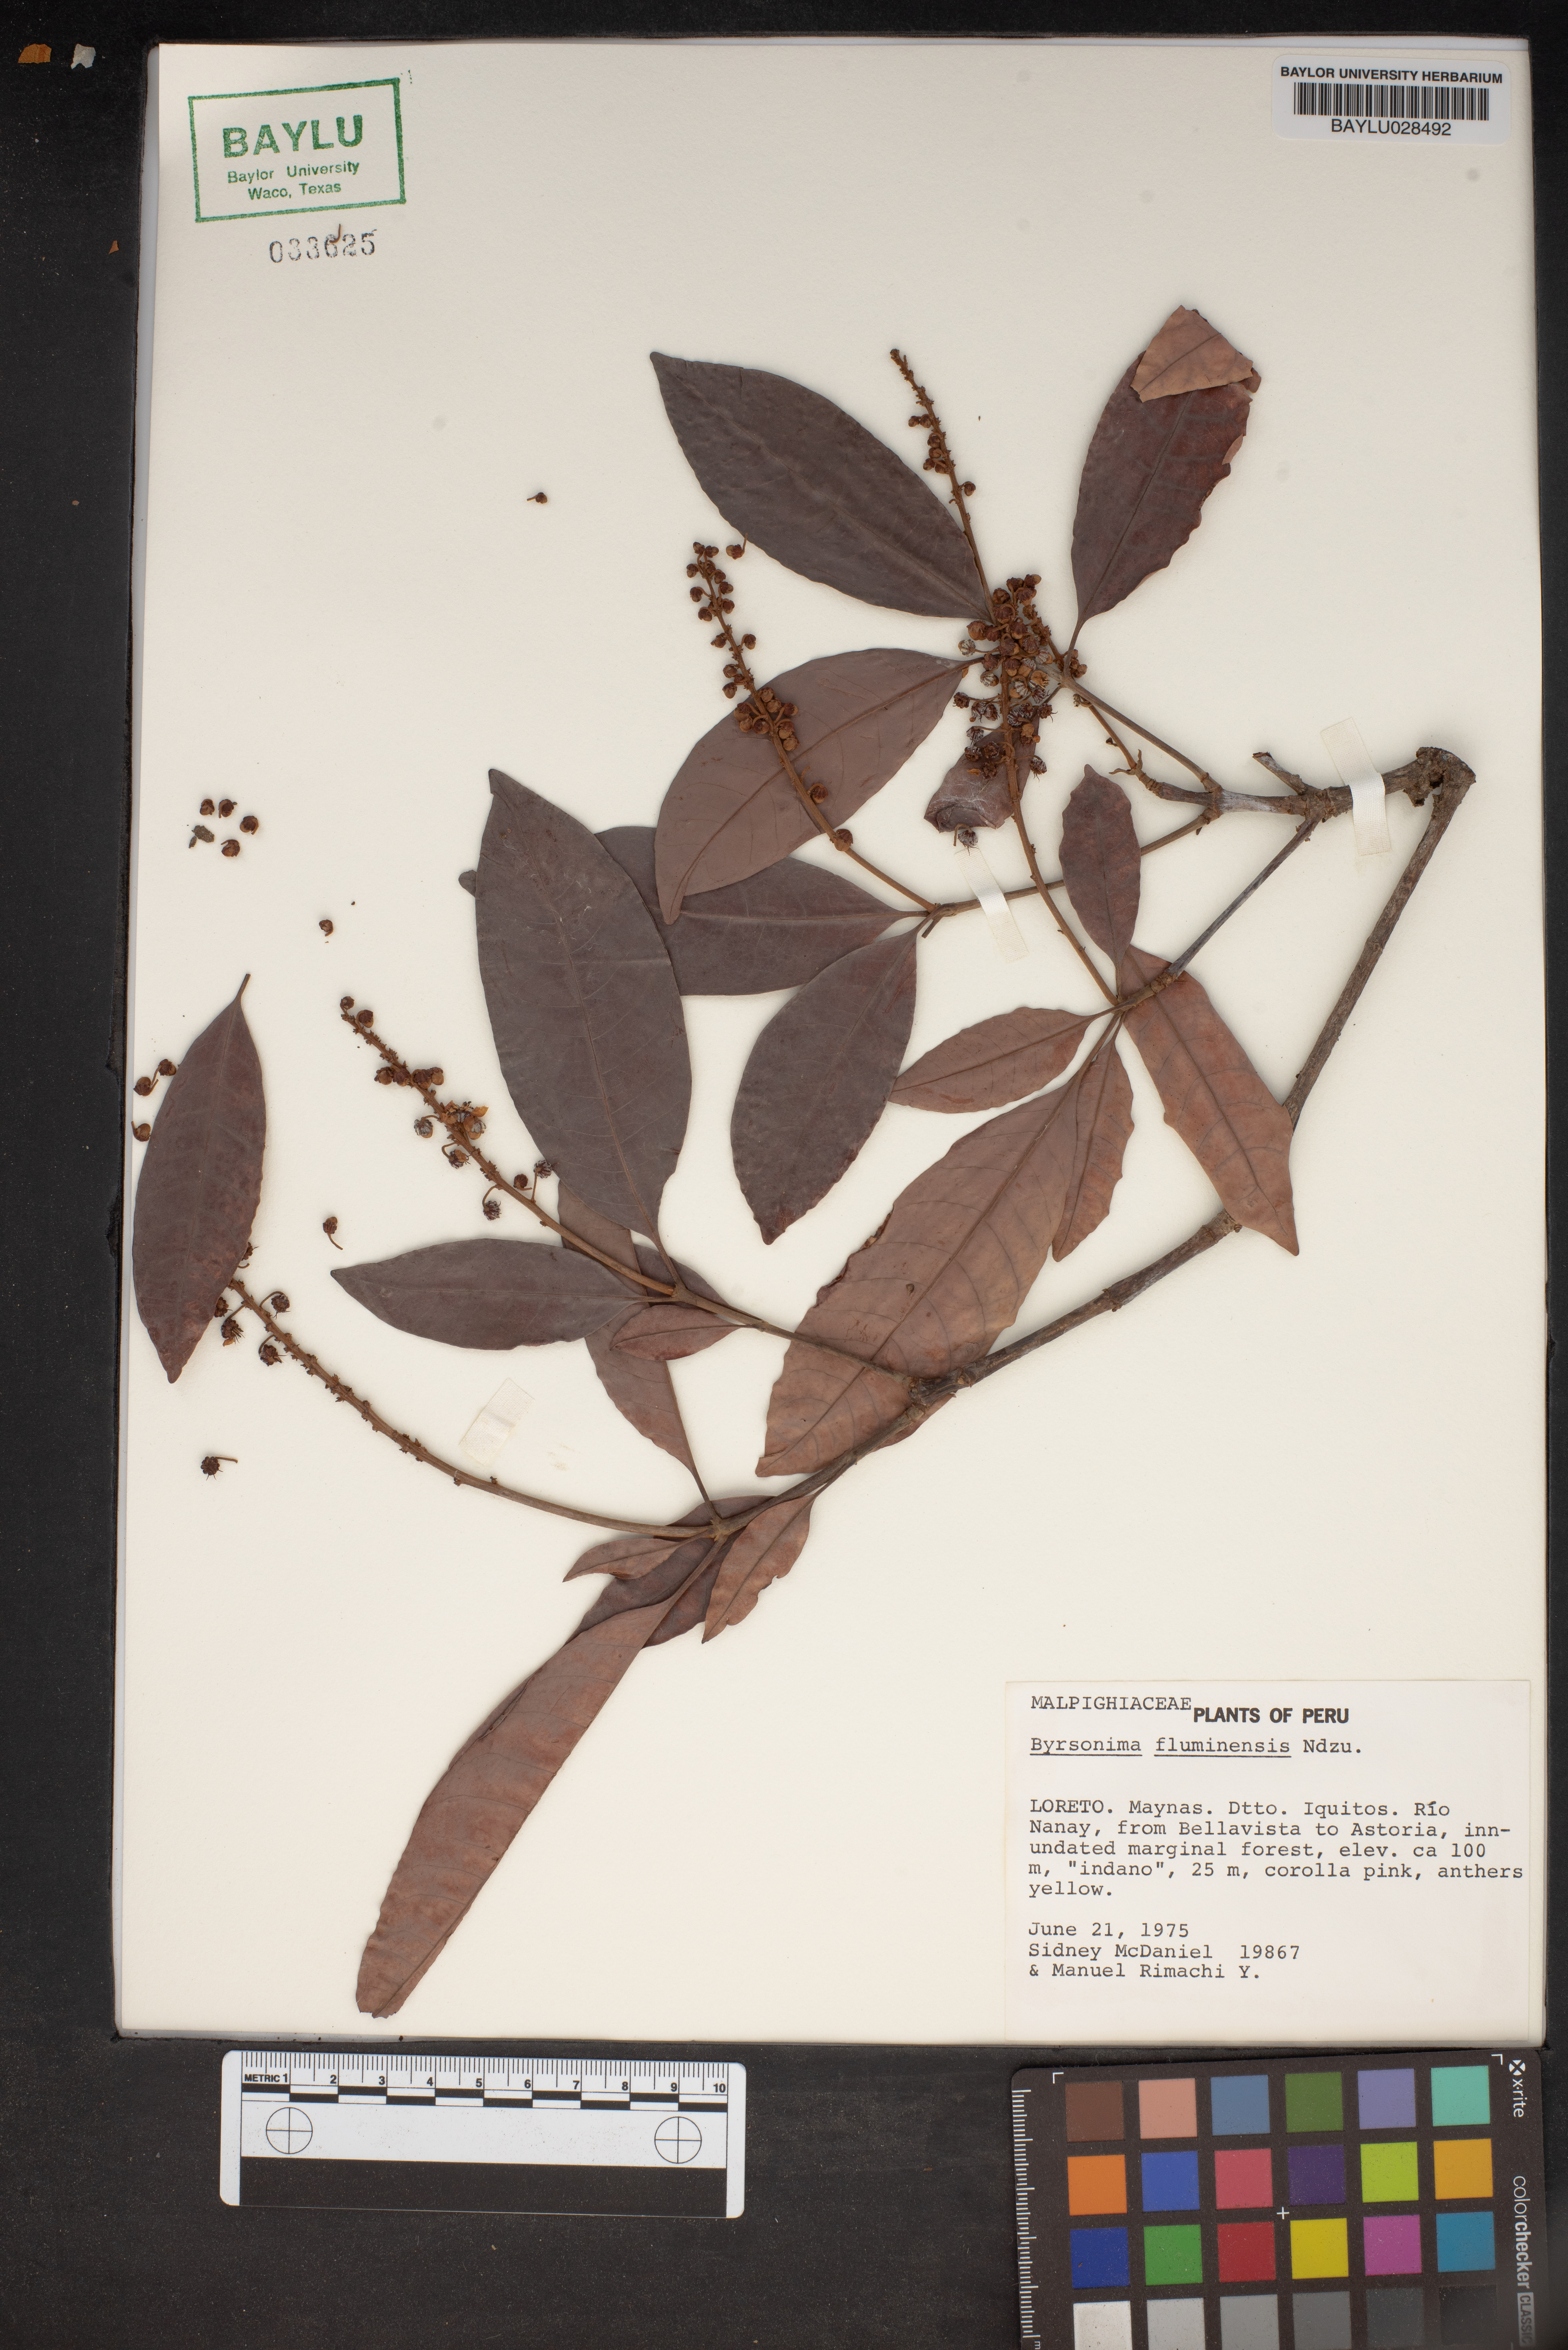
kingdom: Plantae
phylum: Tracheophyta
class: Magnoliopsida
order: Malpighiales
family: Malpighiaceae
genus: Byrsonima
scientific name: Byrsonima japurensis
